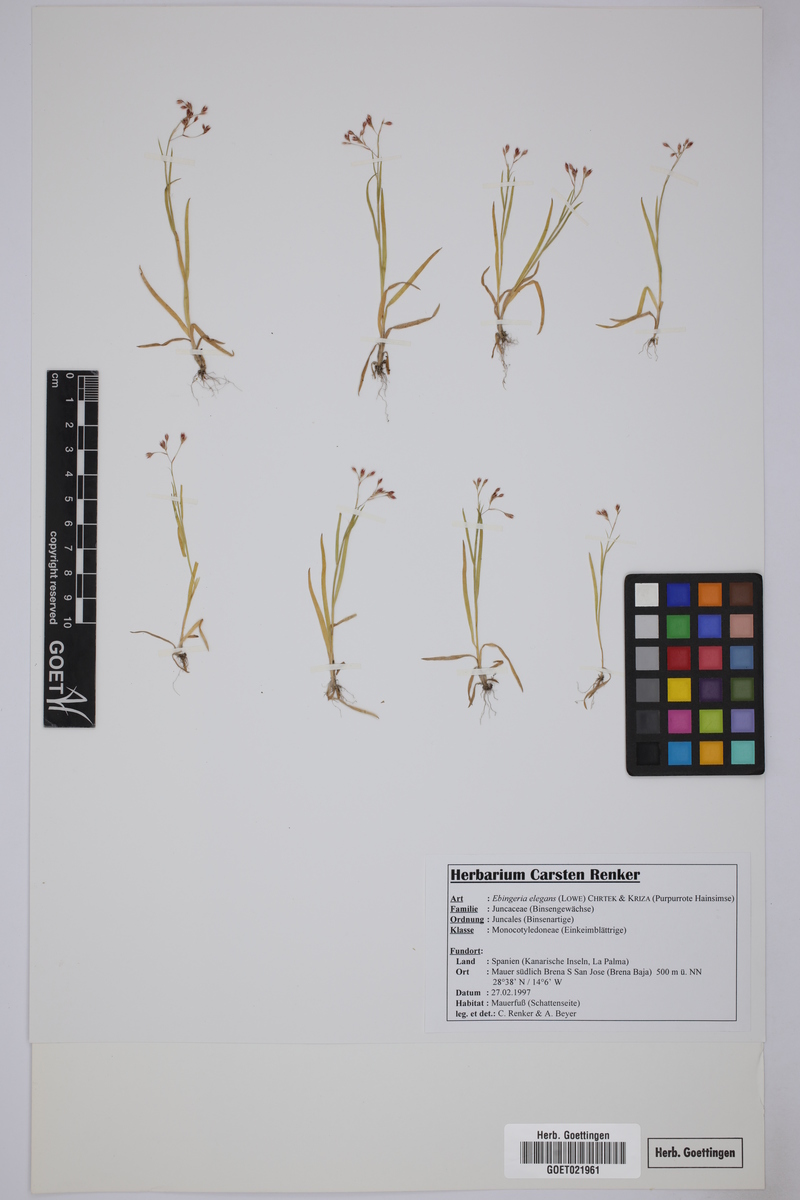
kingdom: Plantae
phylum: Tracheophyta
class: Liliopsida
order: Poales
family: Juncaceae
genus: Luzula
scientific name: Luzula elegans
